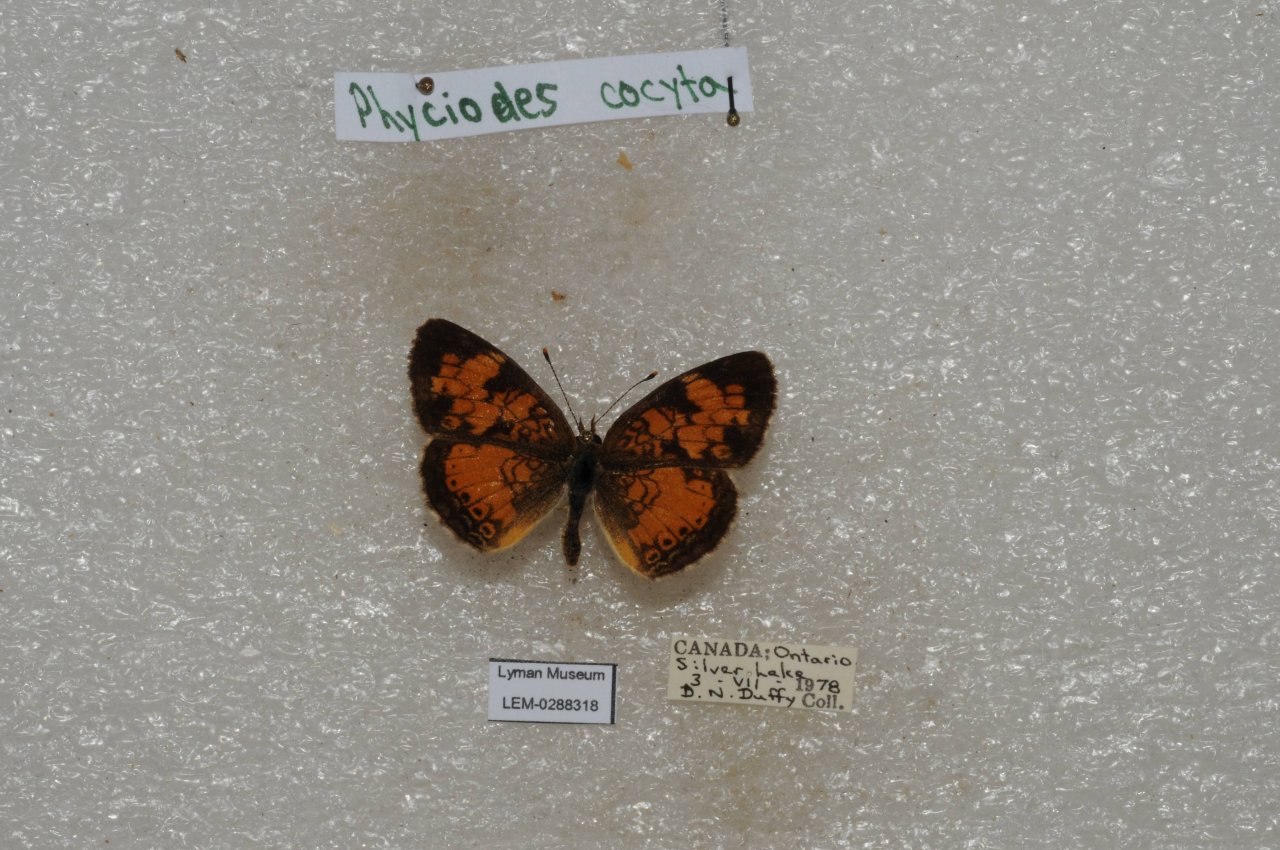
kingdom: Animalia
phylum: Arthropoda
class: Insecta
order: Lepidoptera
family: Nymphalidae
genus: Phyciodes
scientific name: Phyciodes tharos
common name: Northern Crescent
